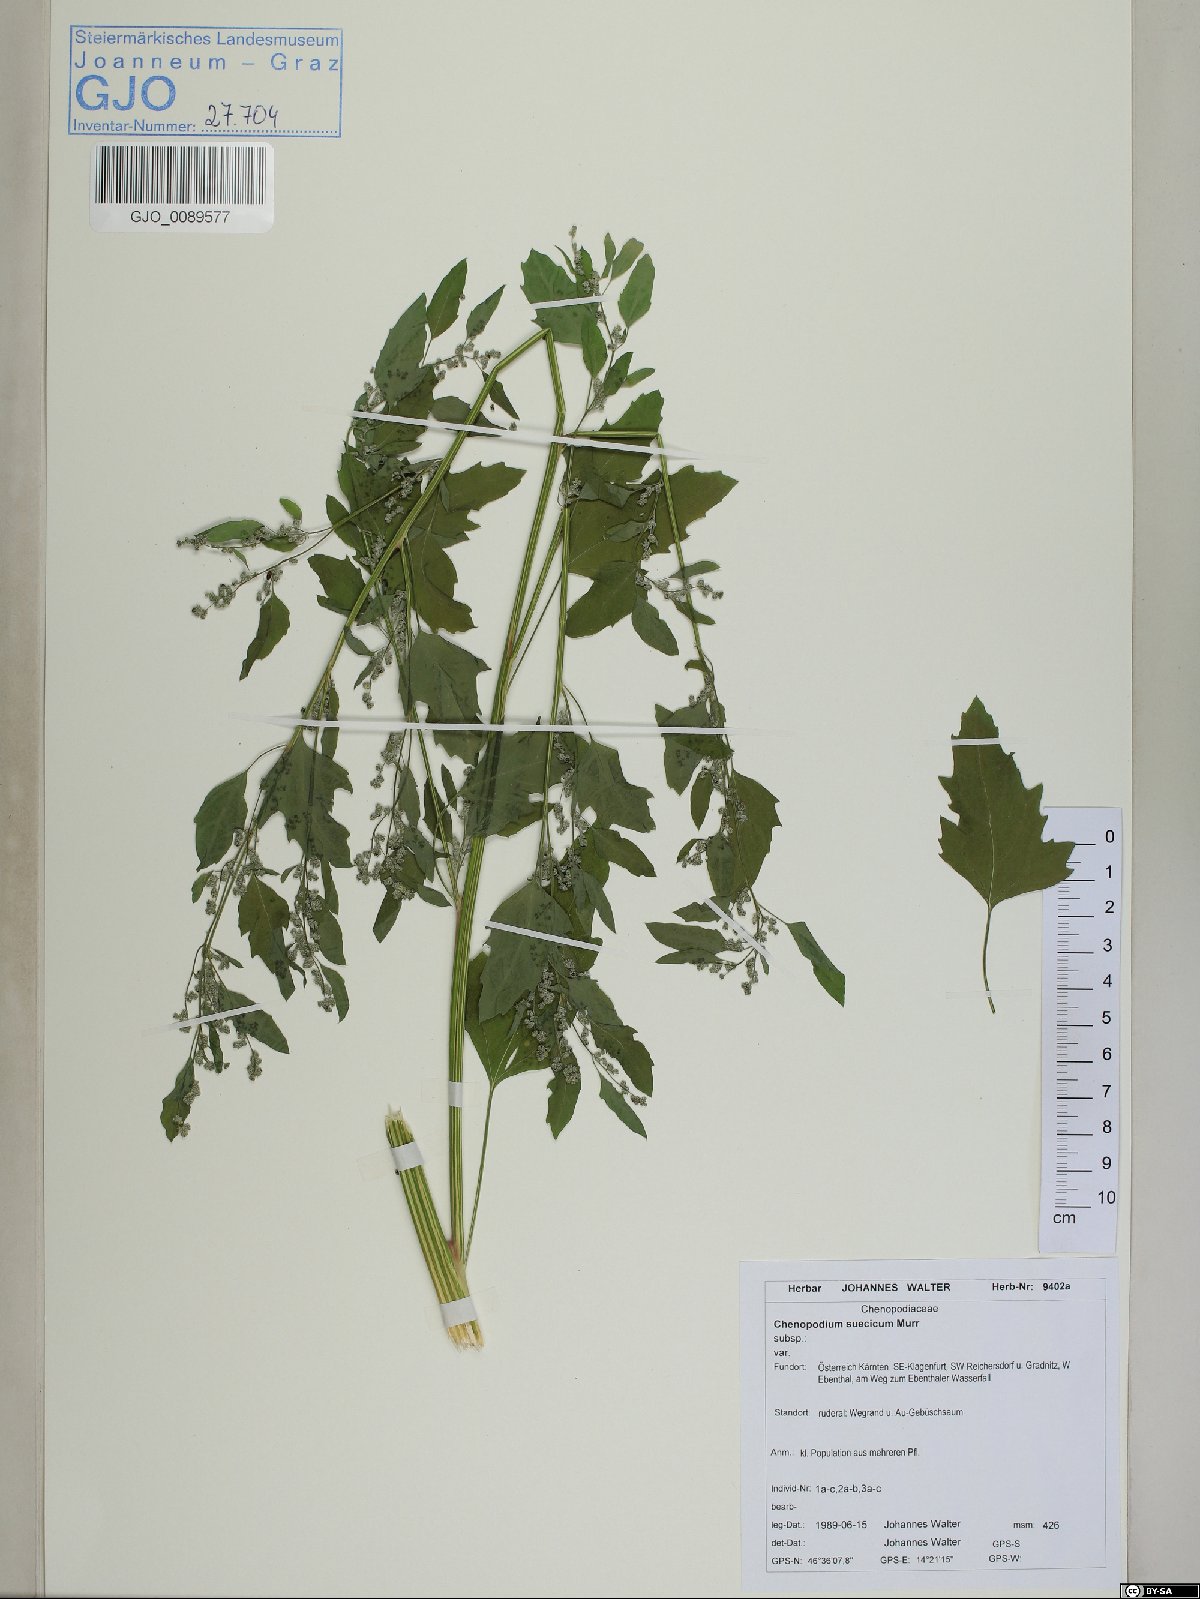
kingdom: Plantae
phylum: Tracheophyta
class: Magnoliopsida
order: Caryophyllales
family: Amaranthaceae
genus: Chenopodium
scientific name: Chenopodium suecicum
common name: Swedish goosefoot
